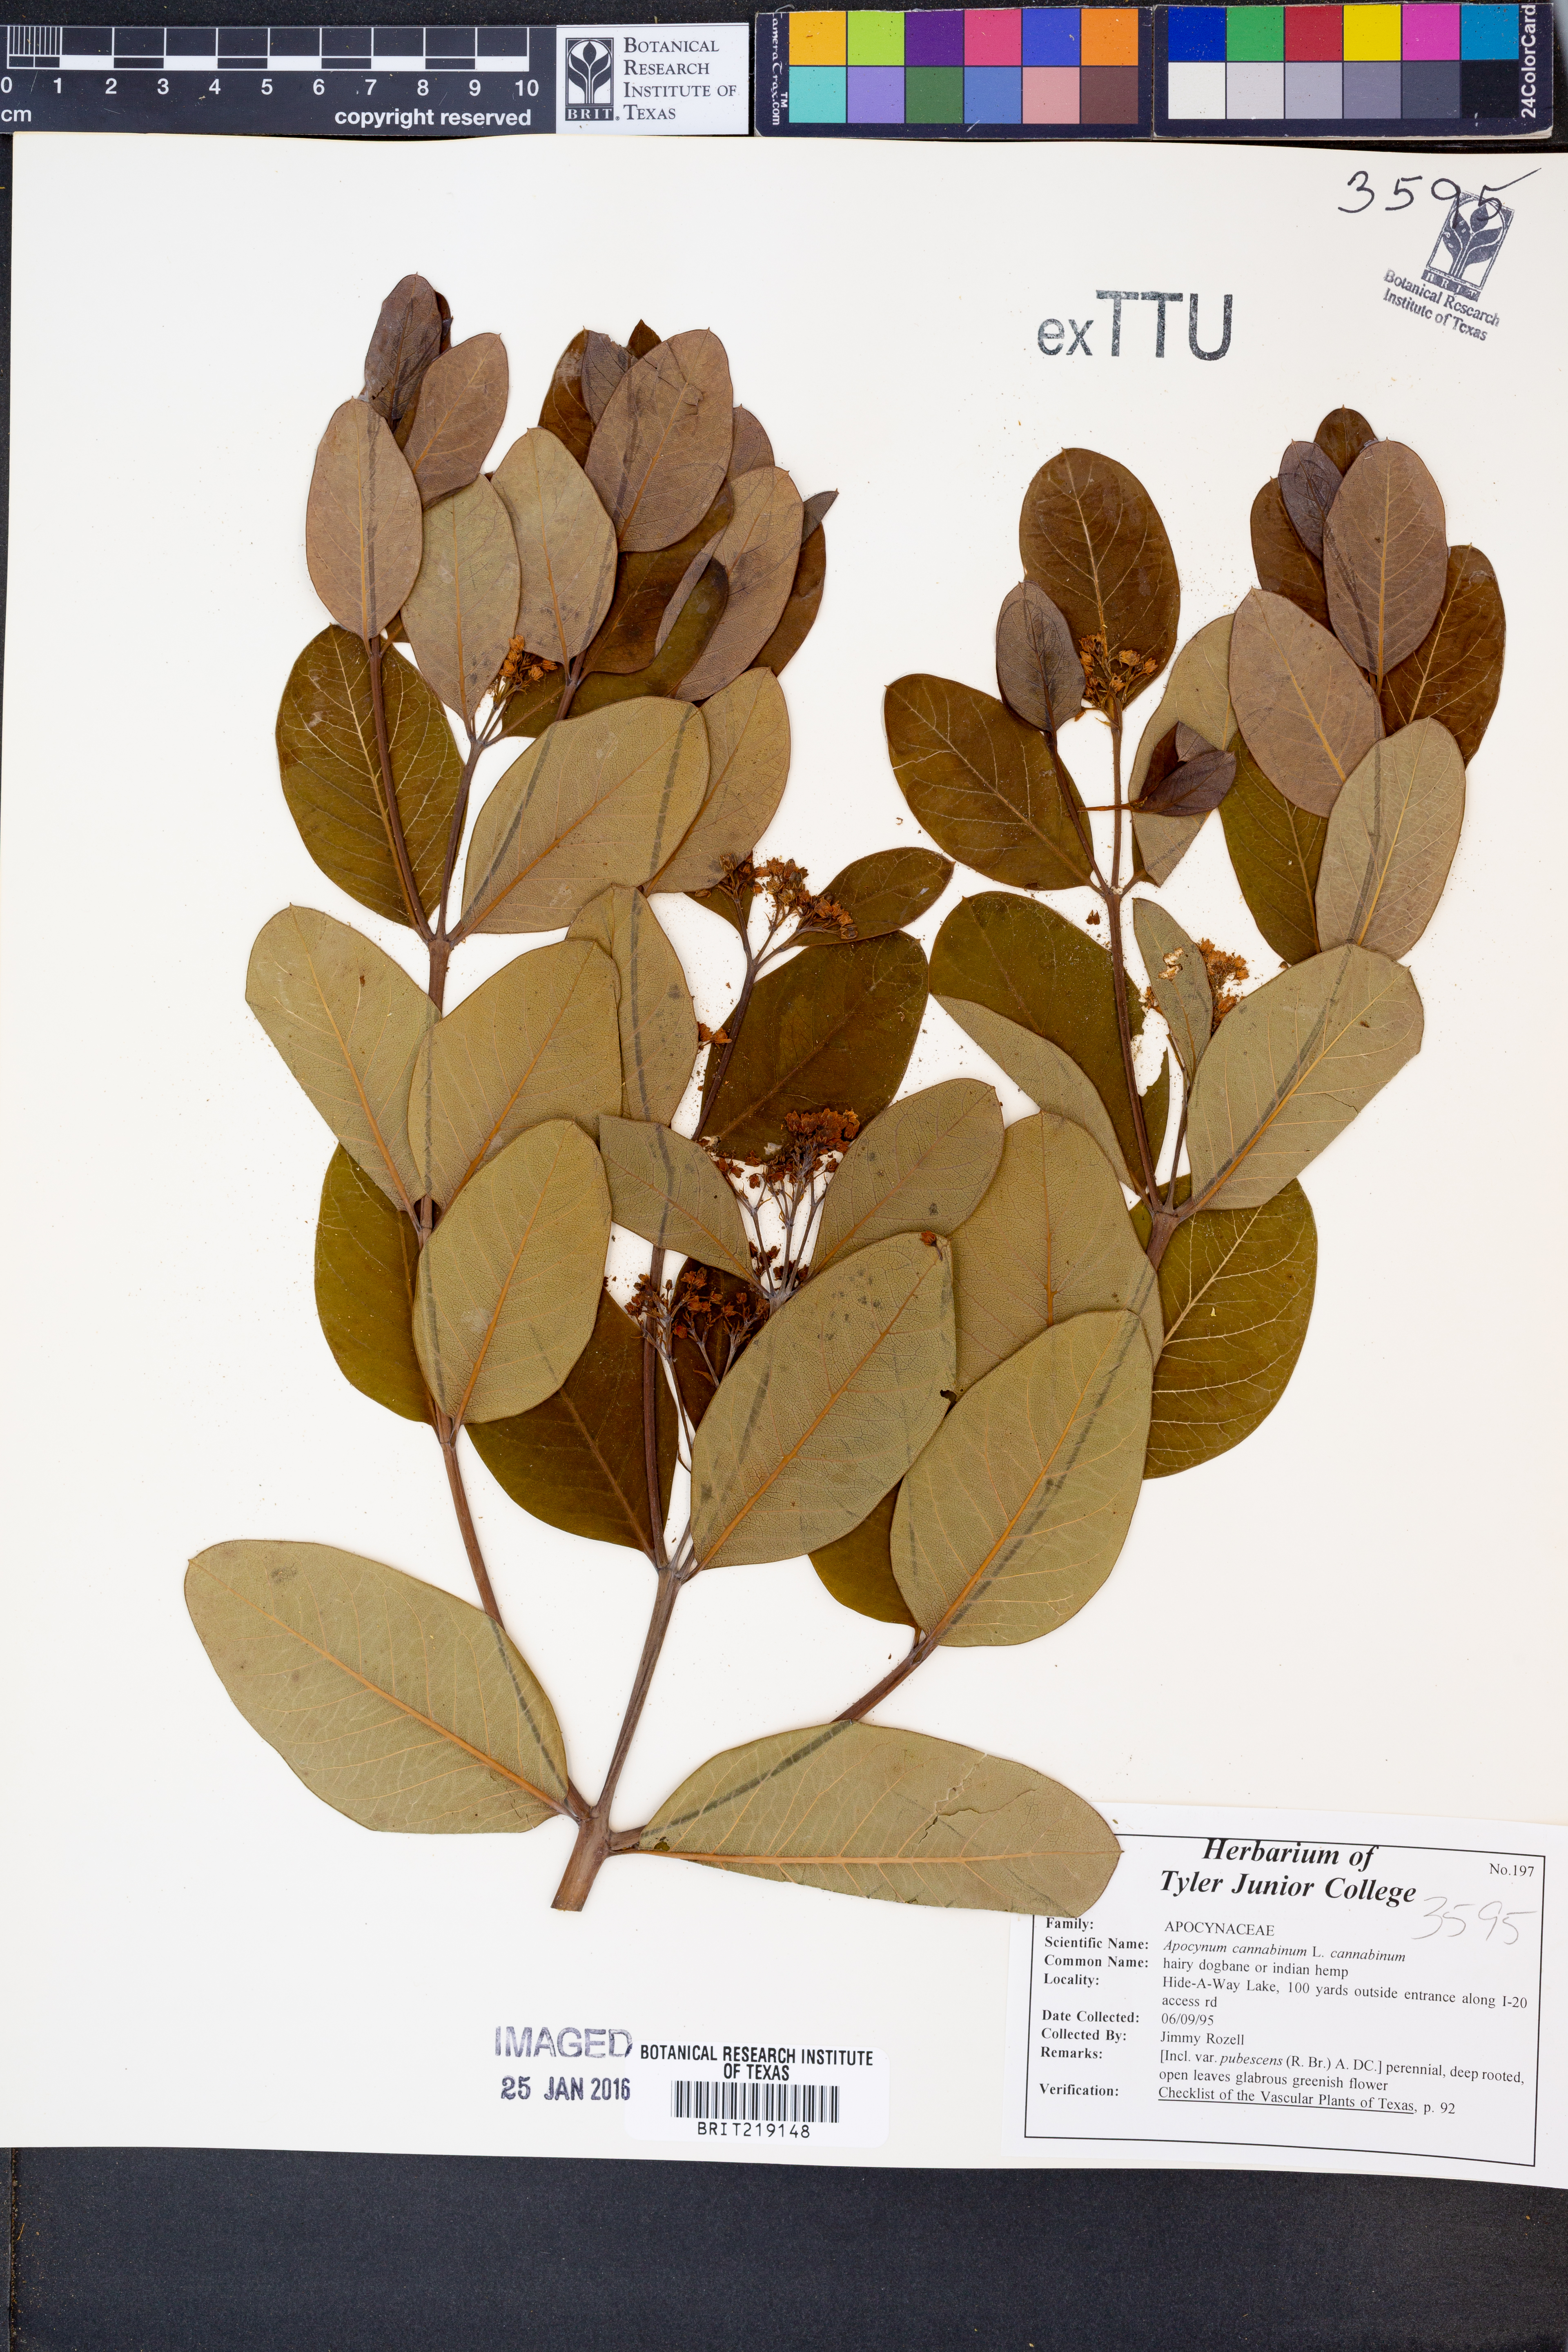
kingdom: Plantae
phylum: Tracheophyta
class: Magnoliopsida
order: Gentianales
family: Apocynaceae
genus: Apocynum
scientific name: Apocynum cannabinum
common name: Hemp dogbane
